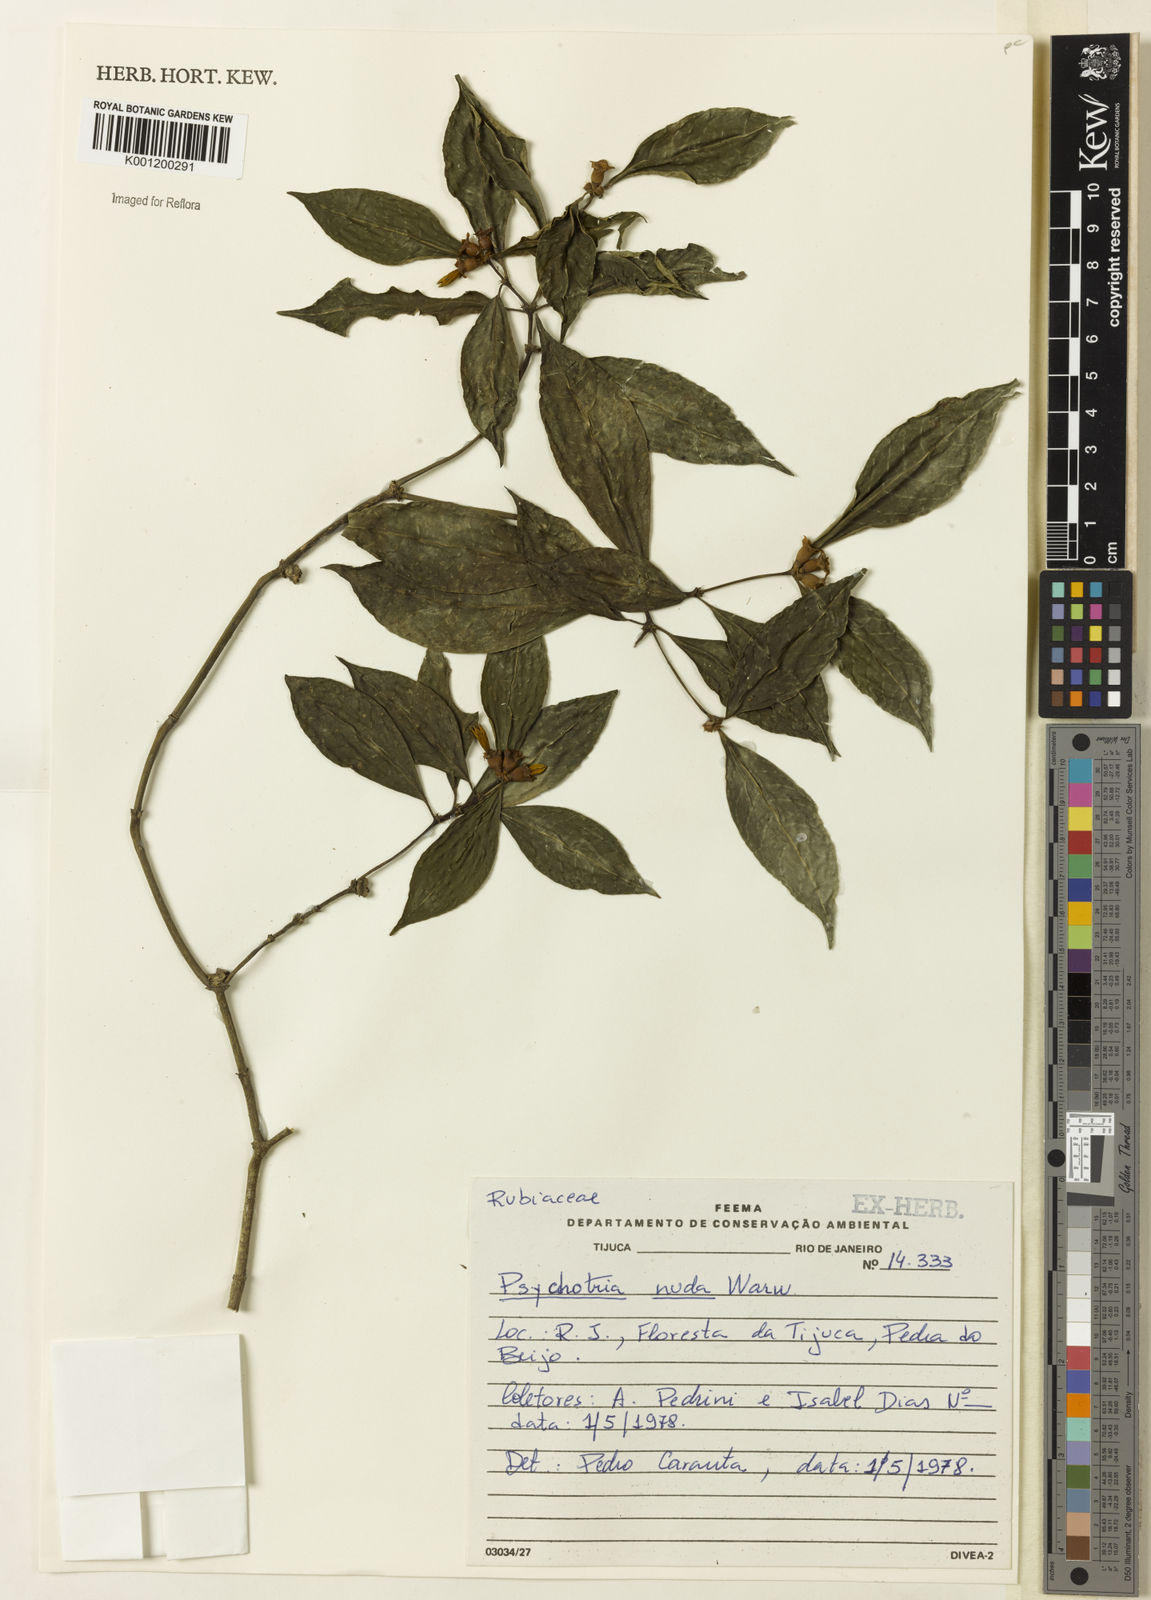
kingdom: Plantae
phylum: Tracheophyta
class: Magnoliopsida
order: Gentianales
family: Rubiaceae
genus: Psychotria
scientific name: Psychotria nuda
